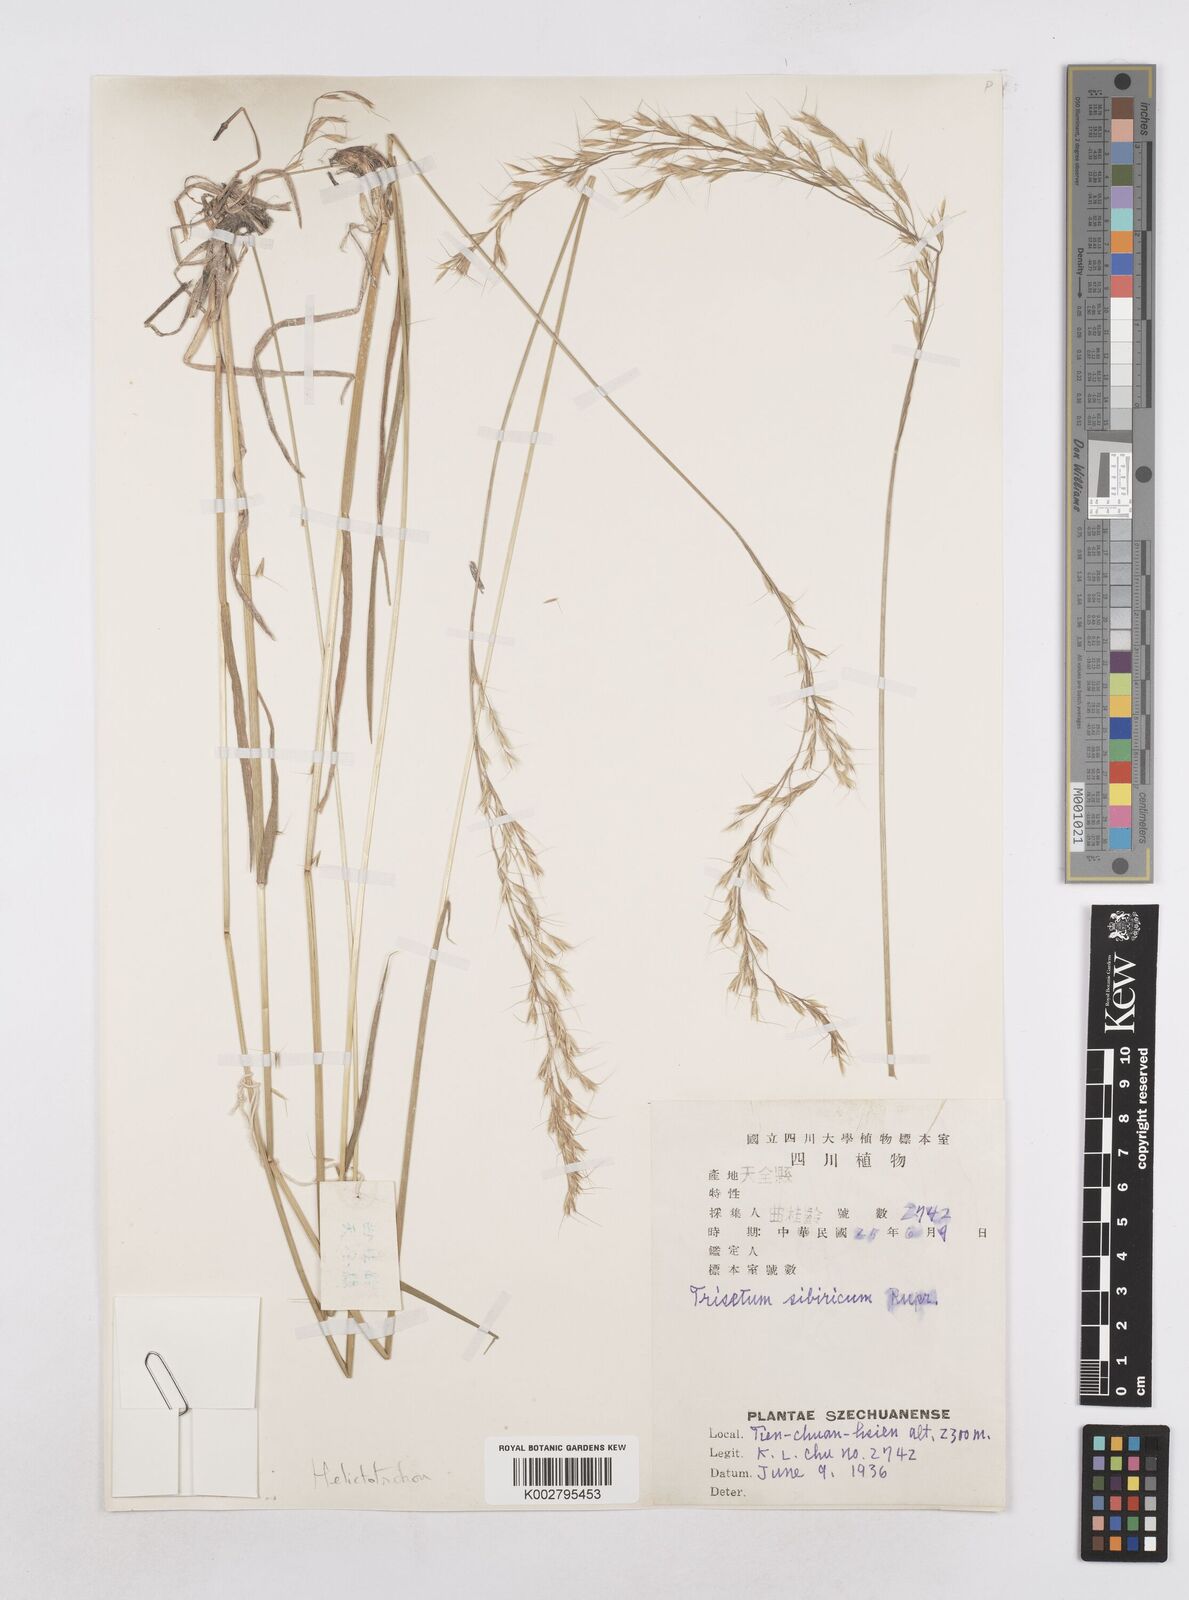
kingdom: Plantae
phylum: Tracheophyta
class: Liliopsida
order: Poales
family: Poaceae
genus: Helictotrichon
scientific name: Helictotrichon
